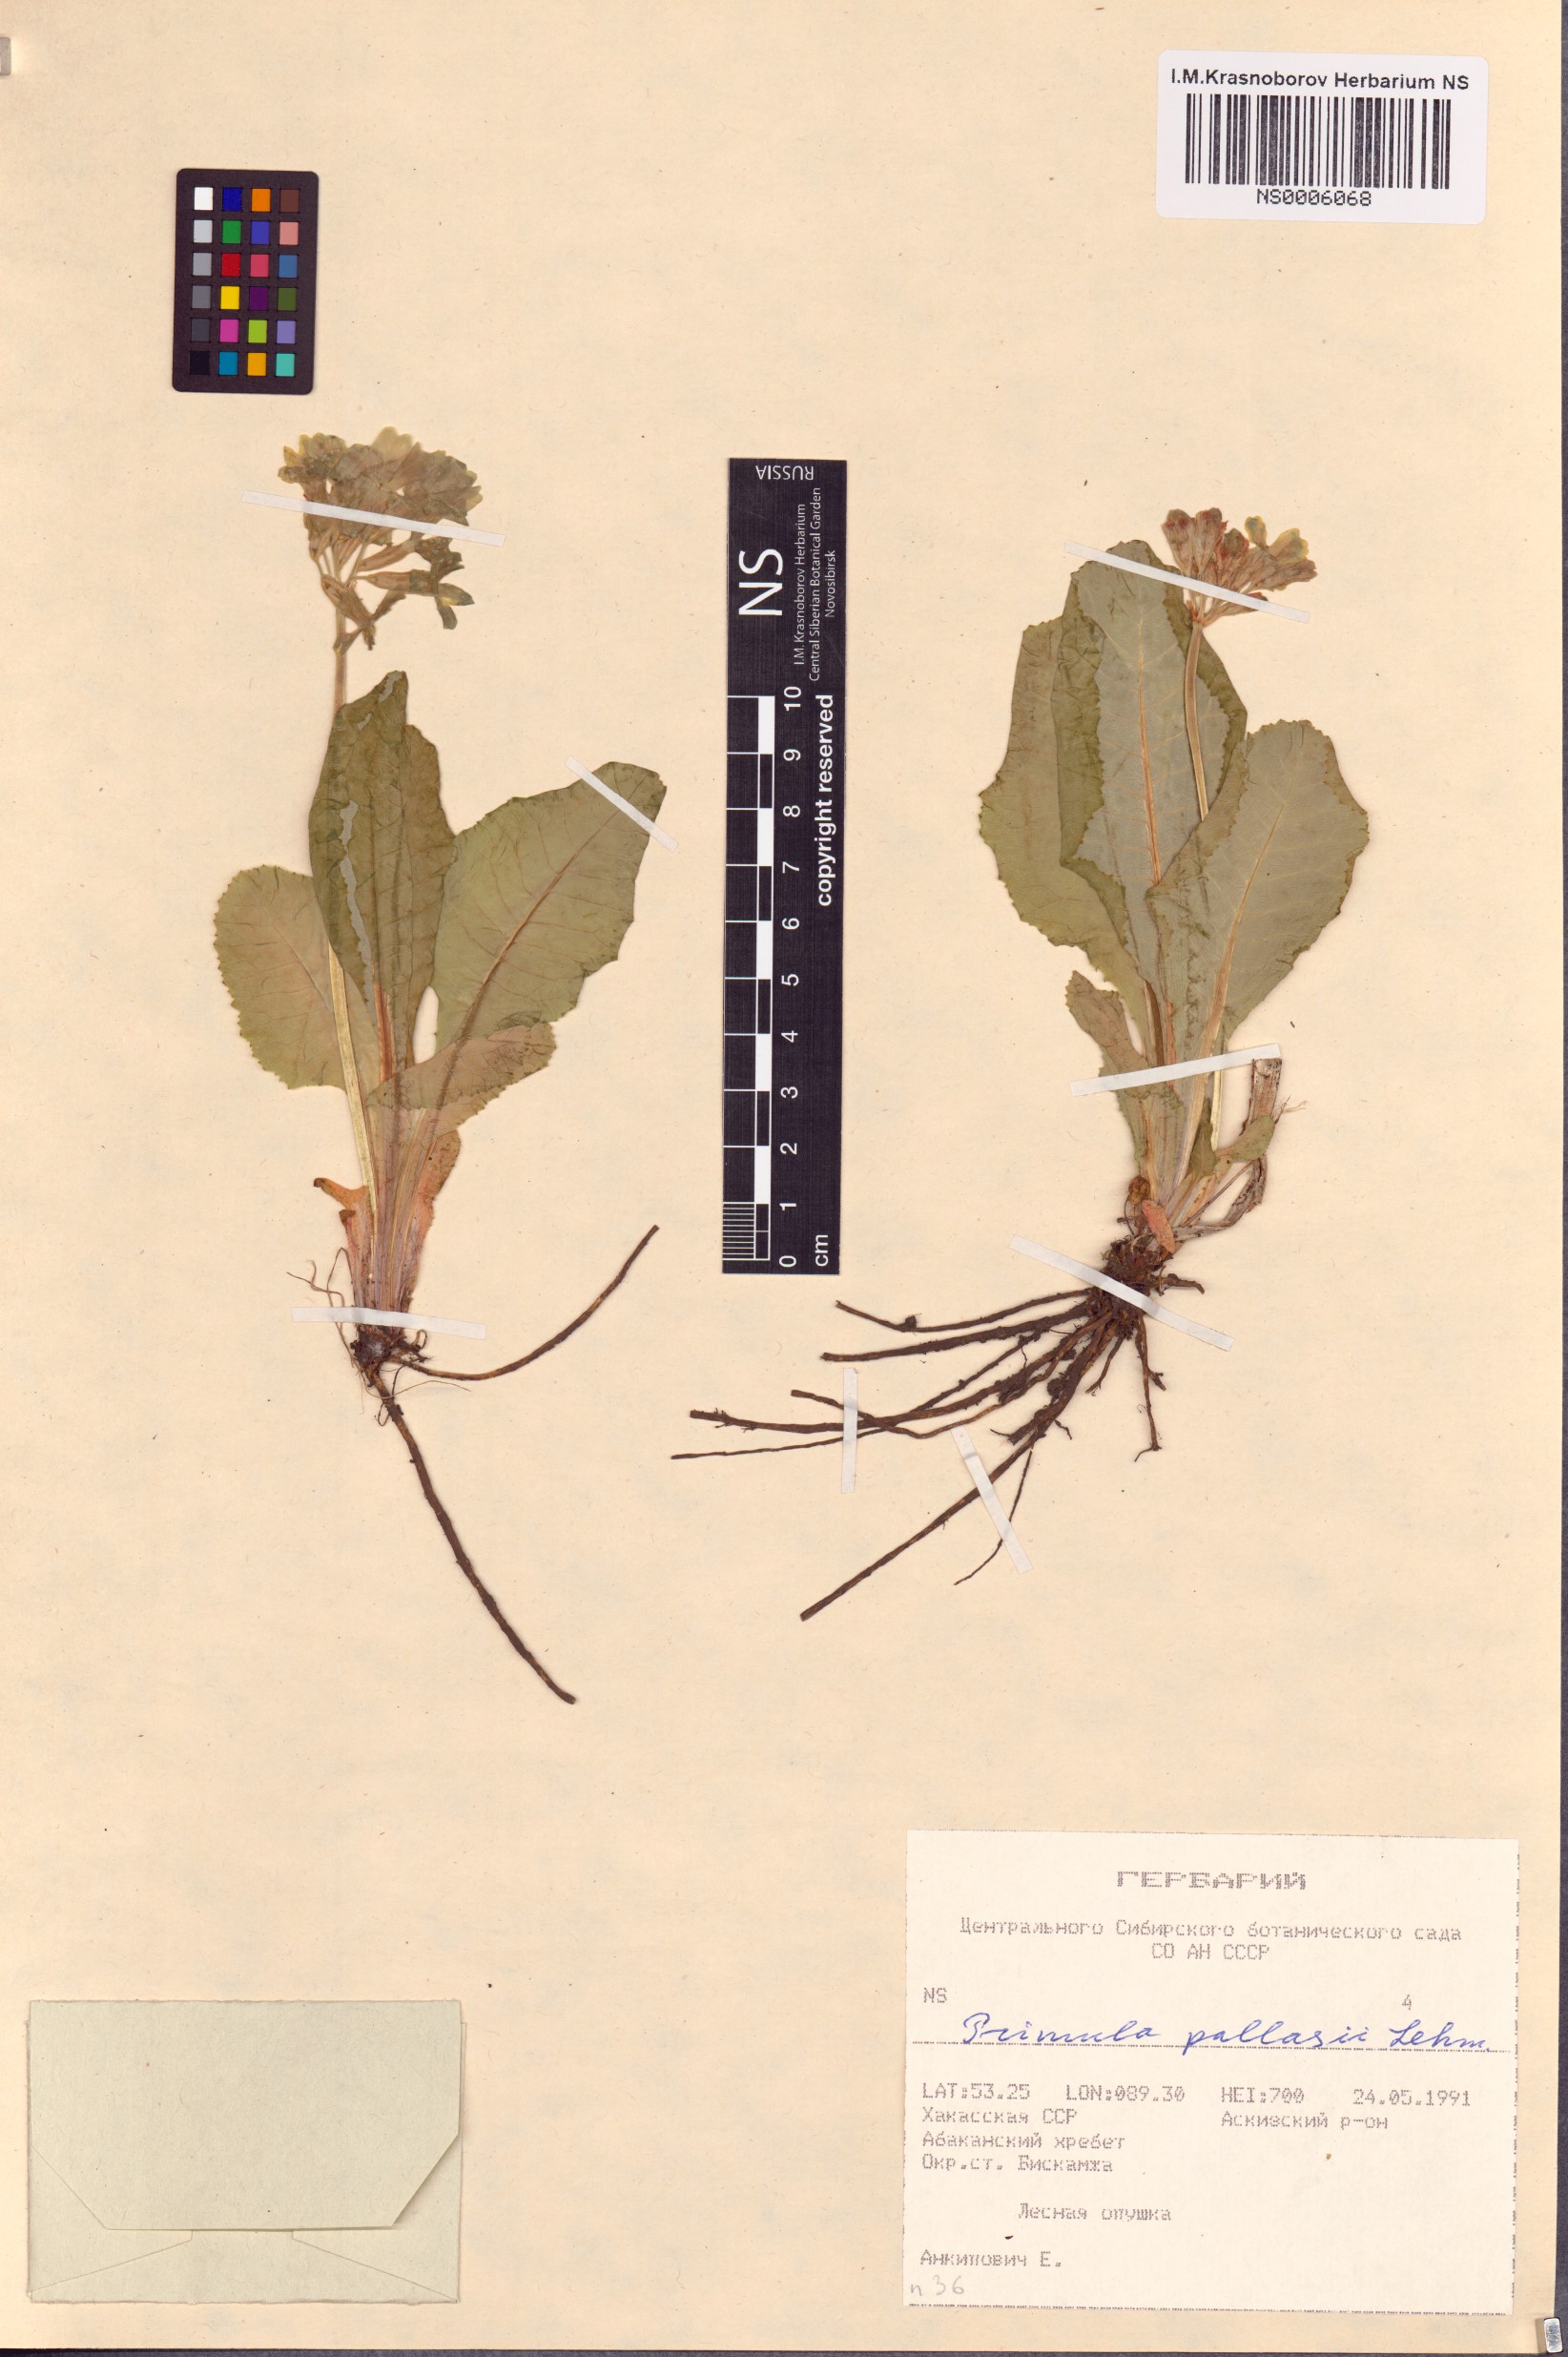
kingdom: Plantae
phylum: Tracheophyta
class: Magnoliopsida
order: Ericales
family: Primulaceae
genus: Primula
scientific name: Primula elatior
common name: Oxlip
